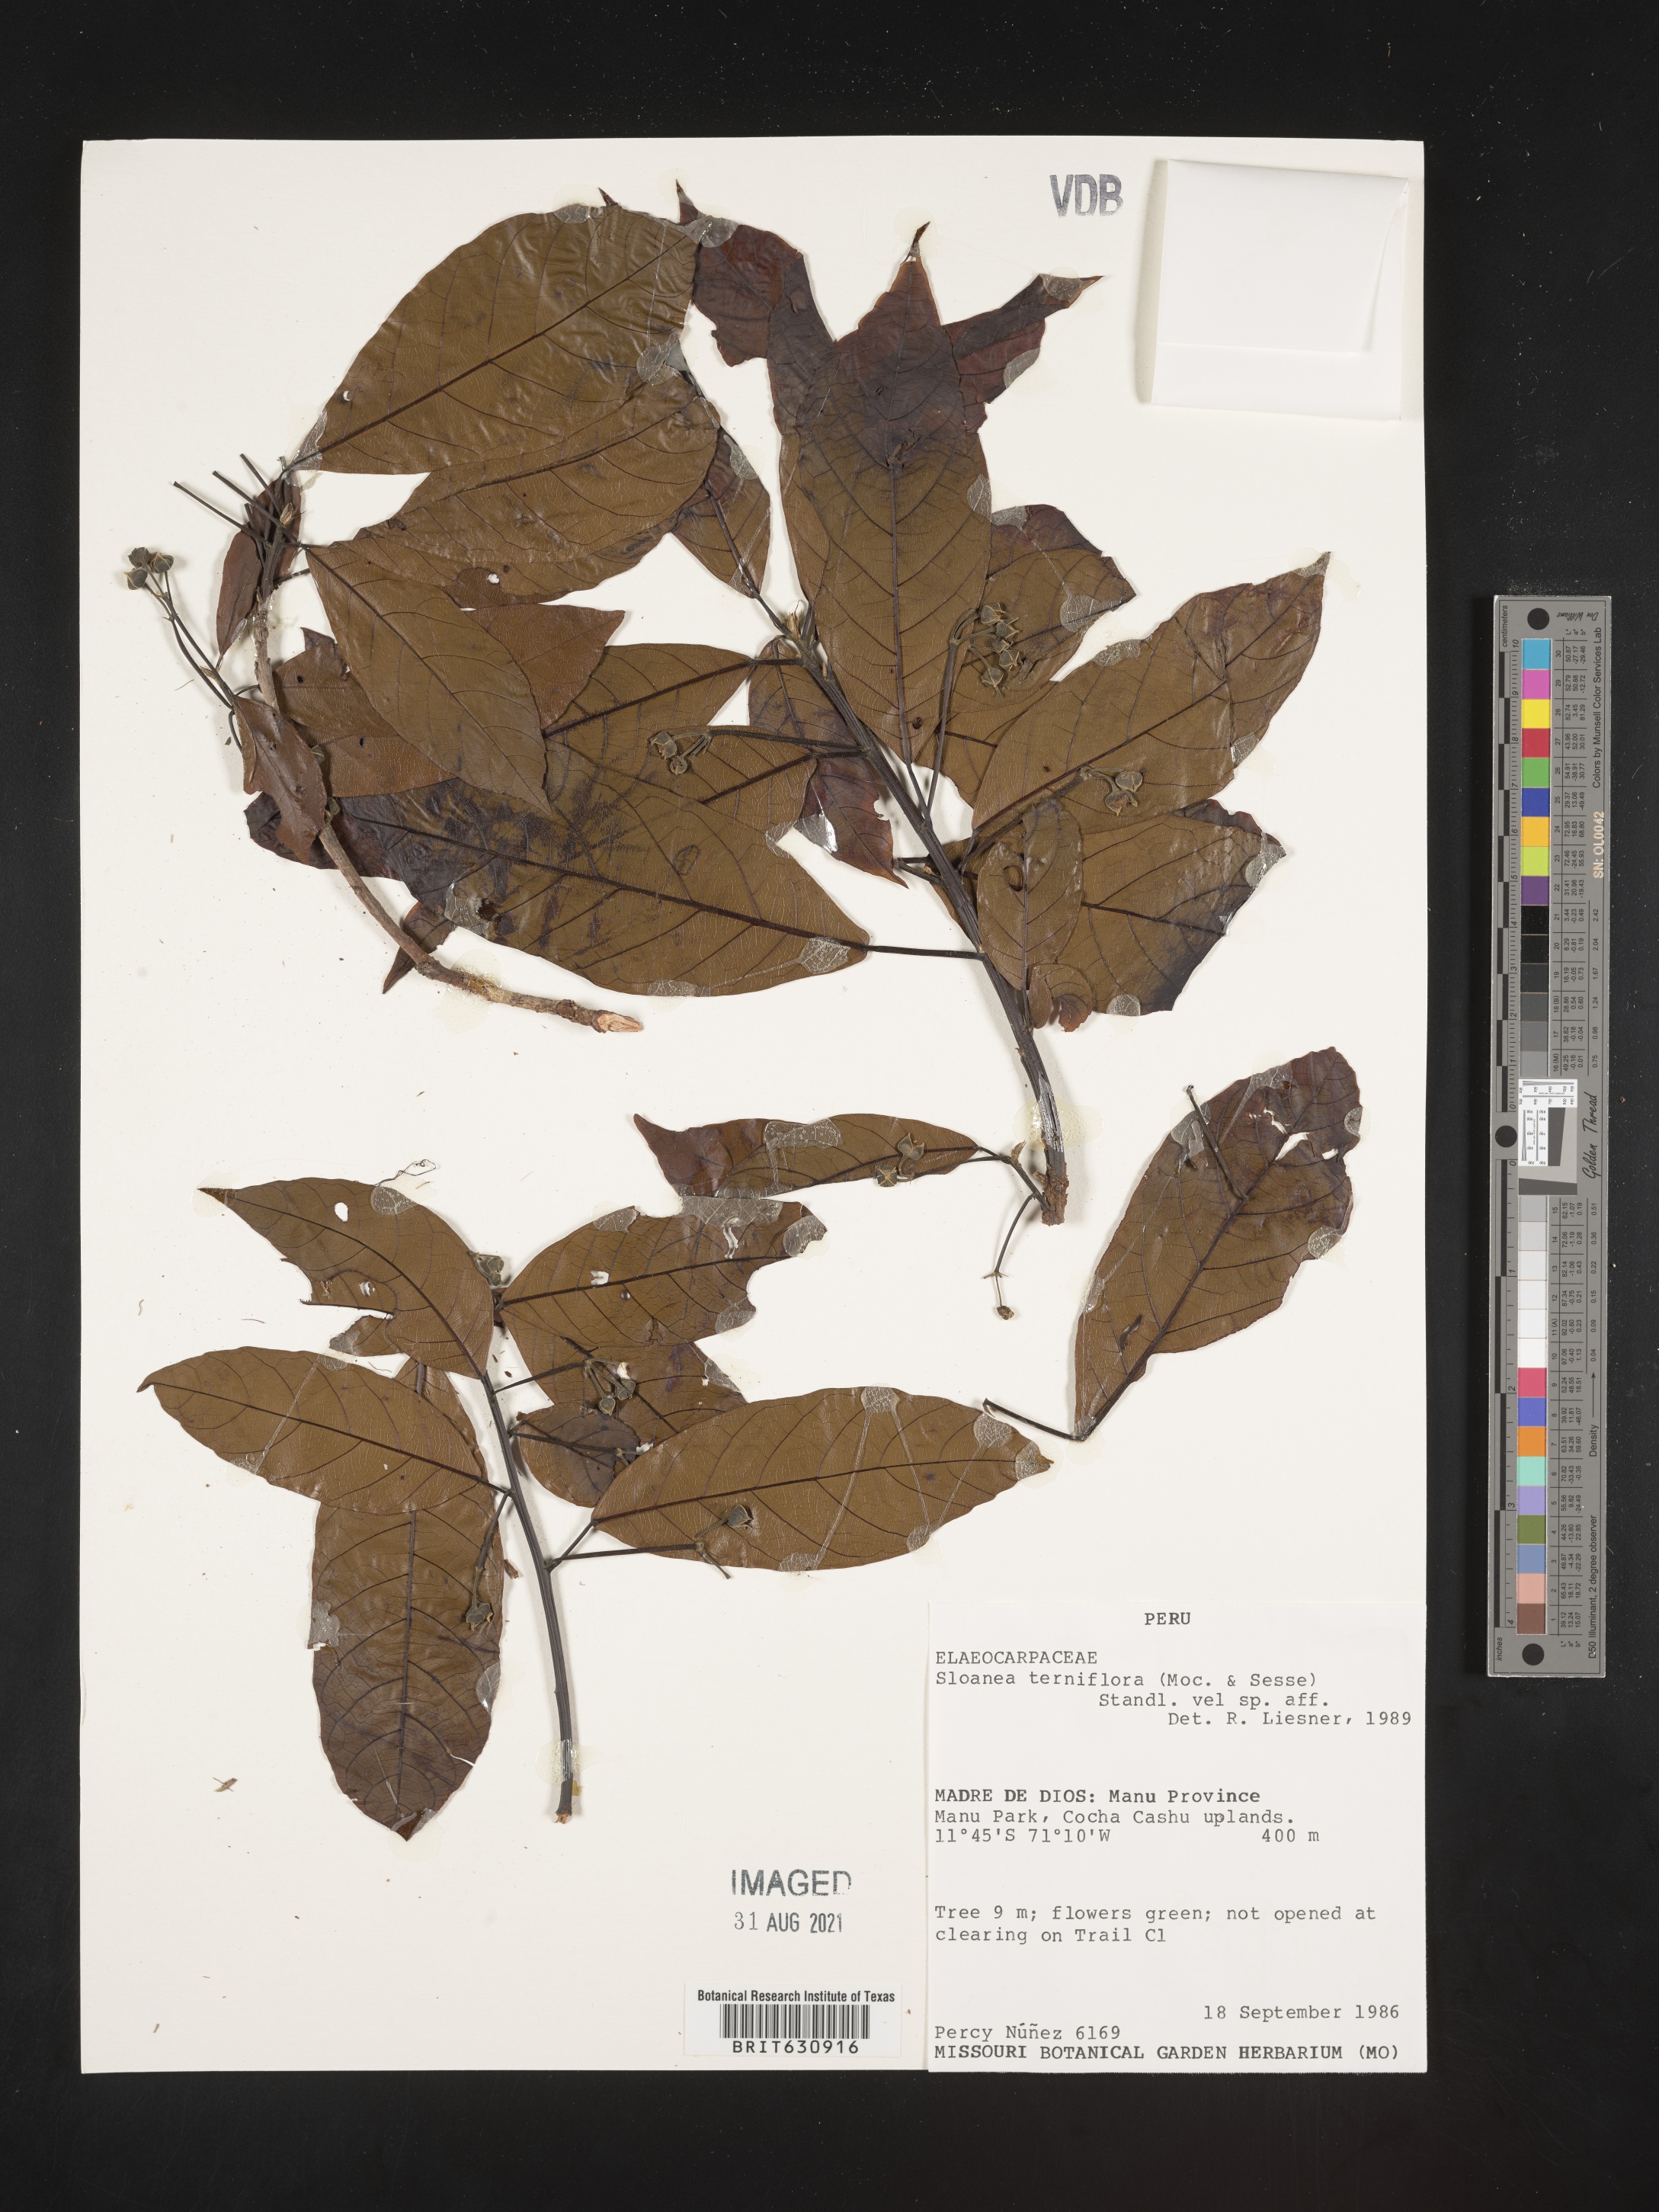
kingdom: Plantae
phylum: Tracheophyta
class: Magnoliopsida
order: Oxalidales
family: Elaeocarpaceae
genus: Sloanea
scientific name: Sloanea
